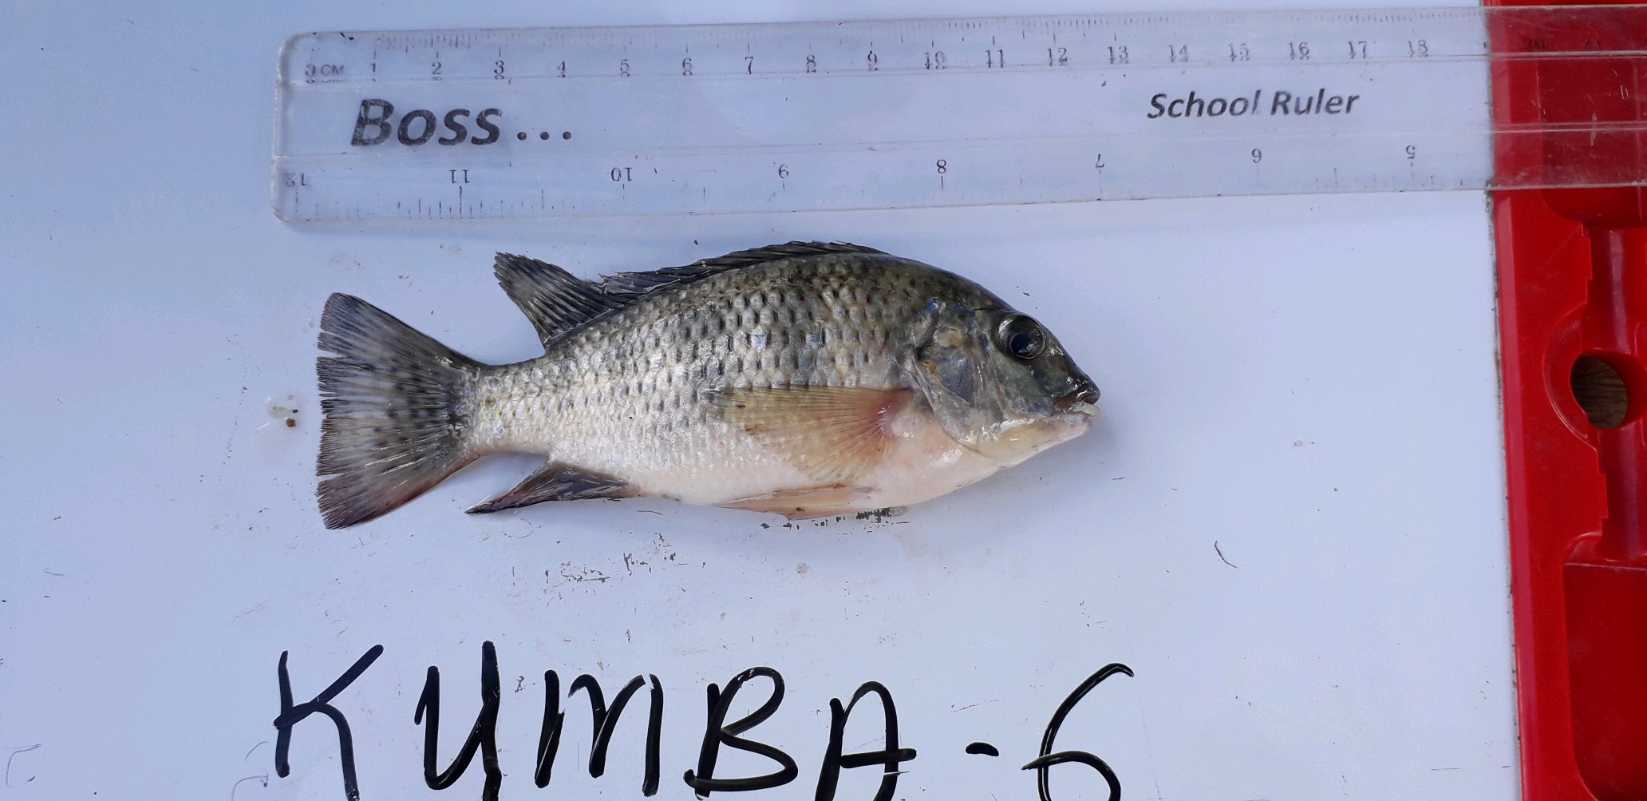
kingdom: Animalia
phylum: Chordata
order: Perciformes
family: Cichlidae
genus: Coptodon
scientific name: Coptodon rendalli
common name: Redbreast tilapia
